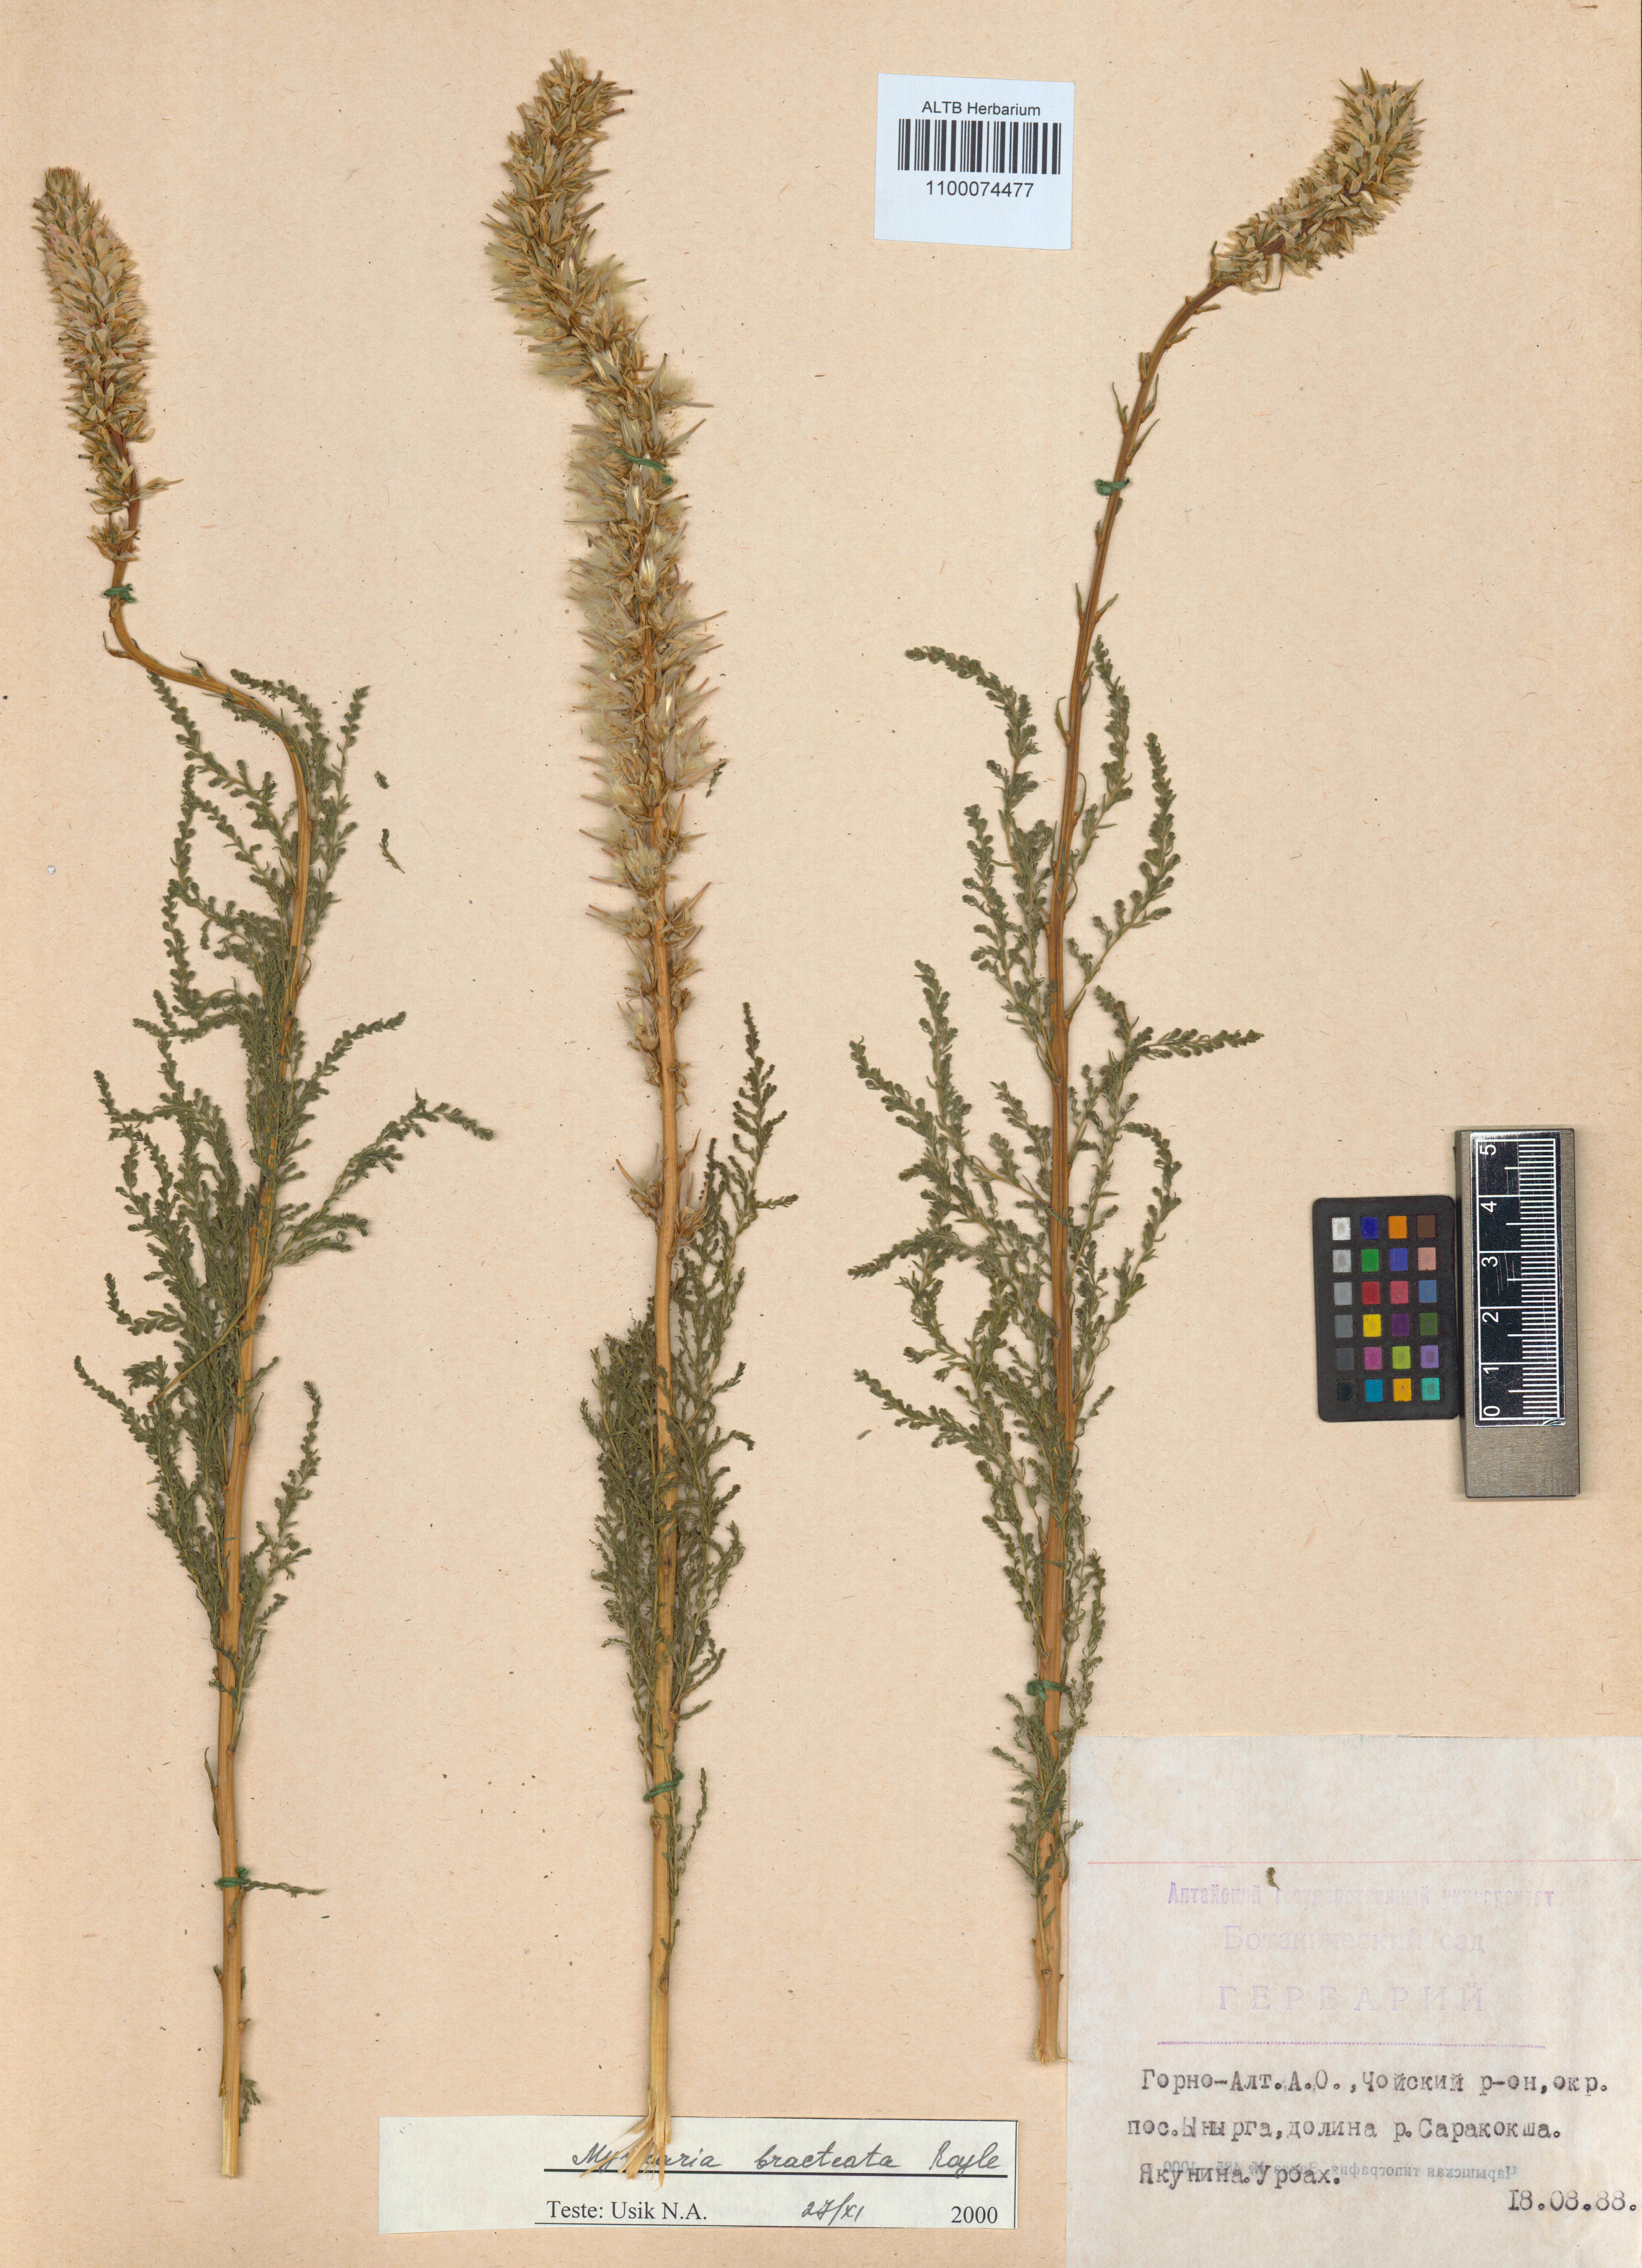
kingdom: Plantae
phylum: Tracheophyta
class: Magnoliopsida
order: Caryophyllales
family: Tamaricaceae
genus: Myricaria
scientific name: Myricaria bracteata
